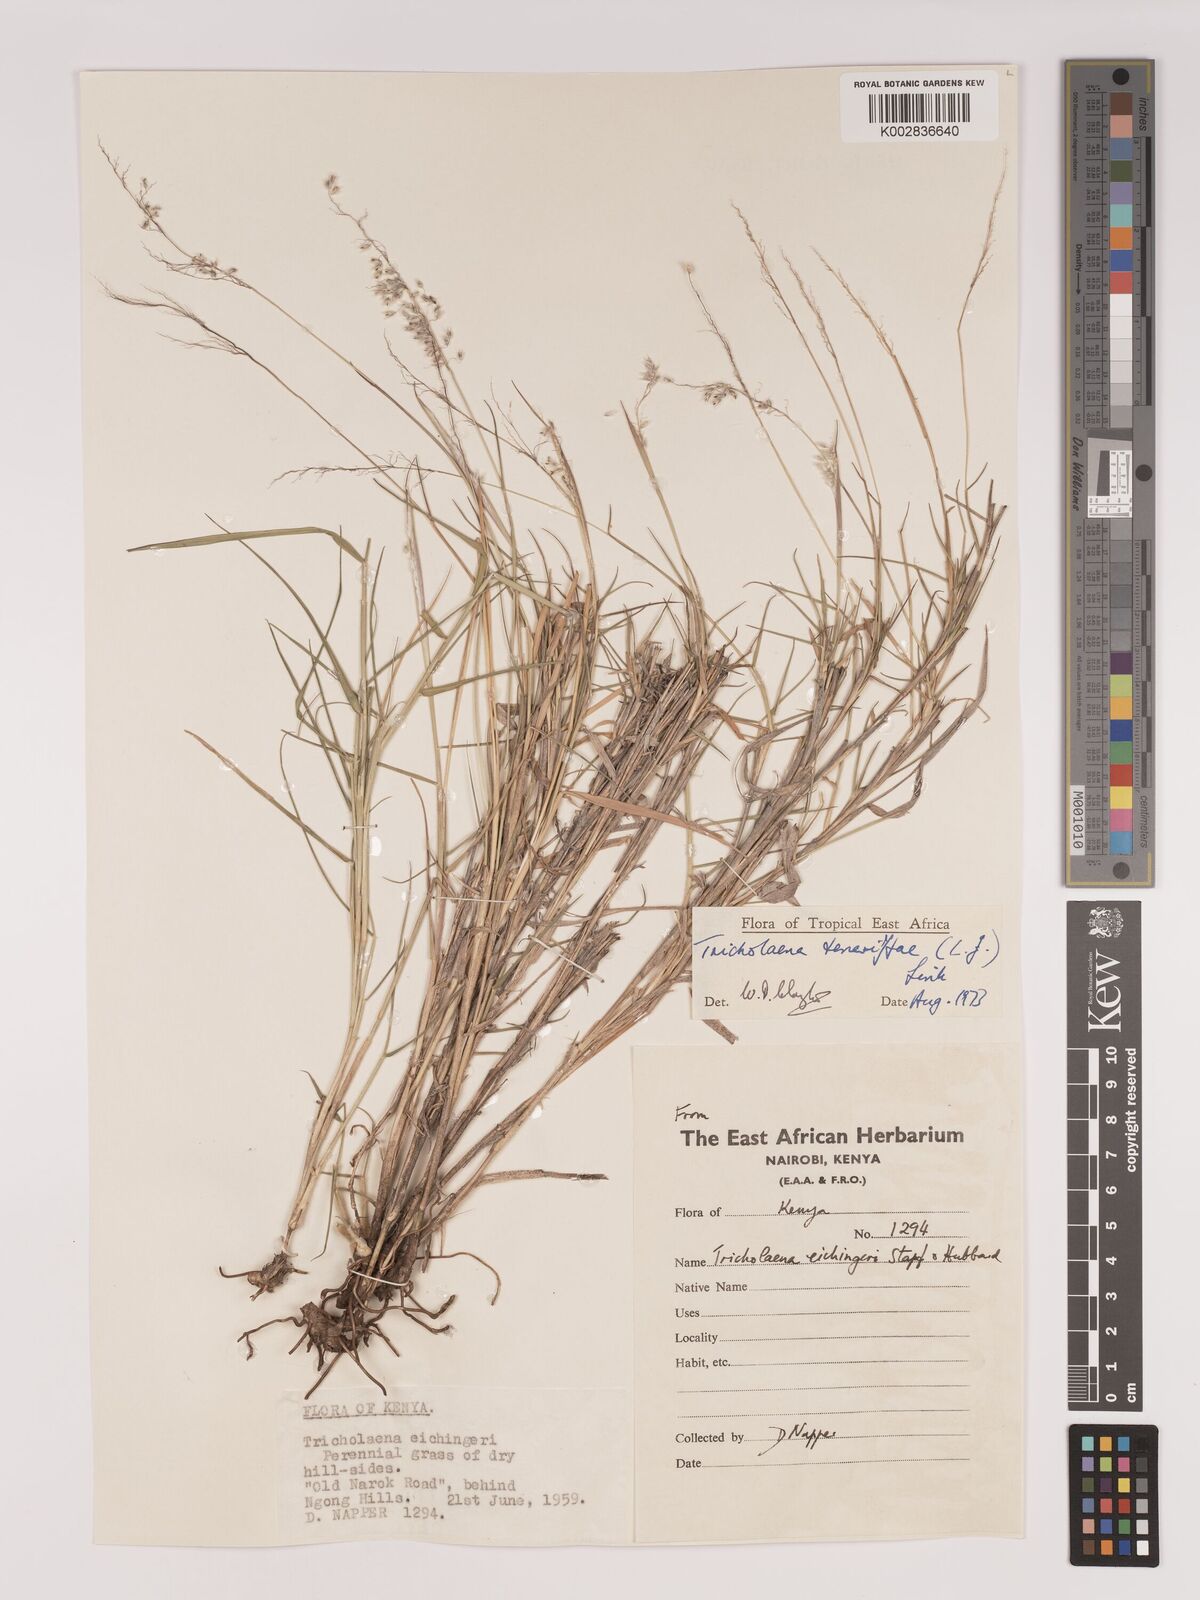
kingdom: Plantae
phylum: Tracheophyta
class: Liliopsida
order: Poales
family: Poaceae
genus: Tricholaena
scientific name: Tricholaena teneriffae
